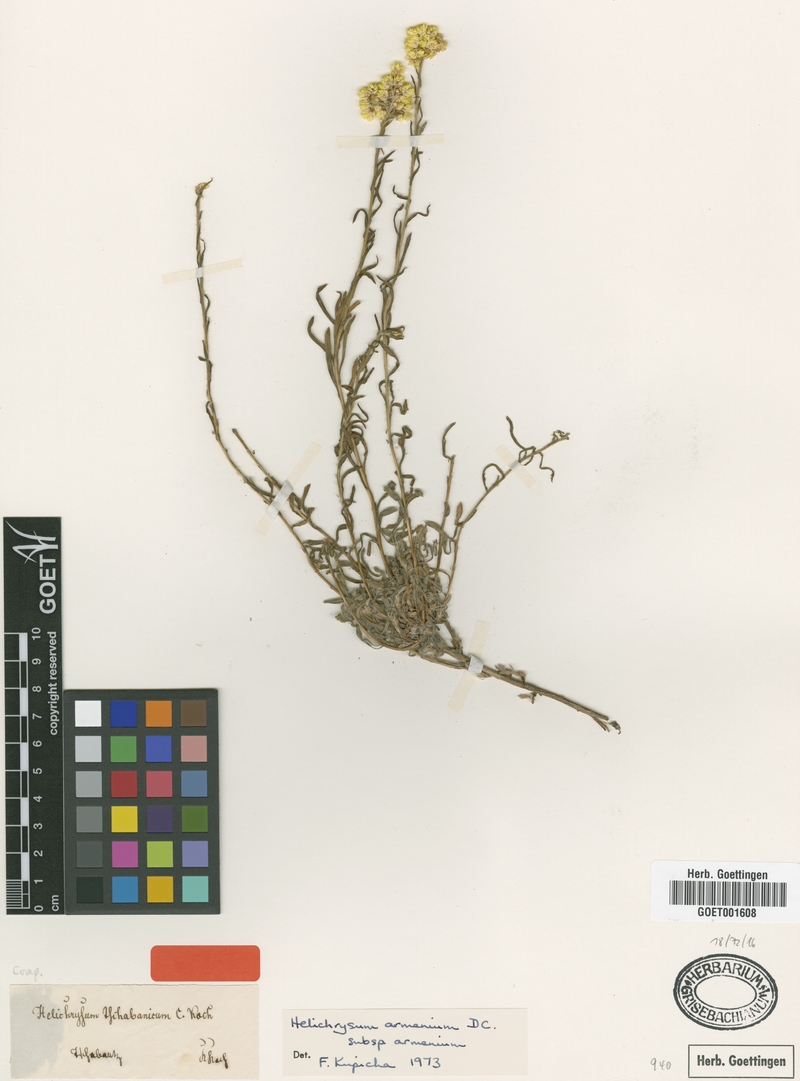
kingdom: Plantae
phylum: Tracheophyta
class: Magnoliopsida
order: Asterales
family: Asteraceae
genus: Helichrysum
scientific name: Helichrysum armenium
